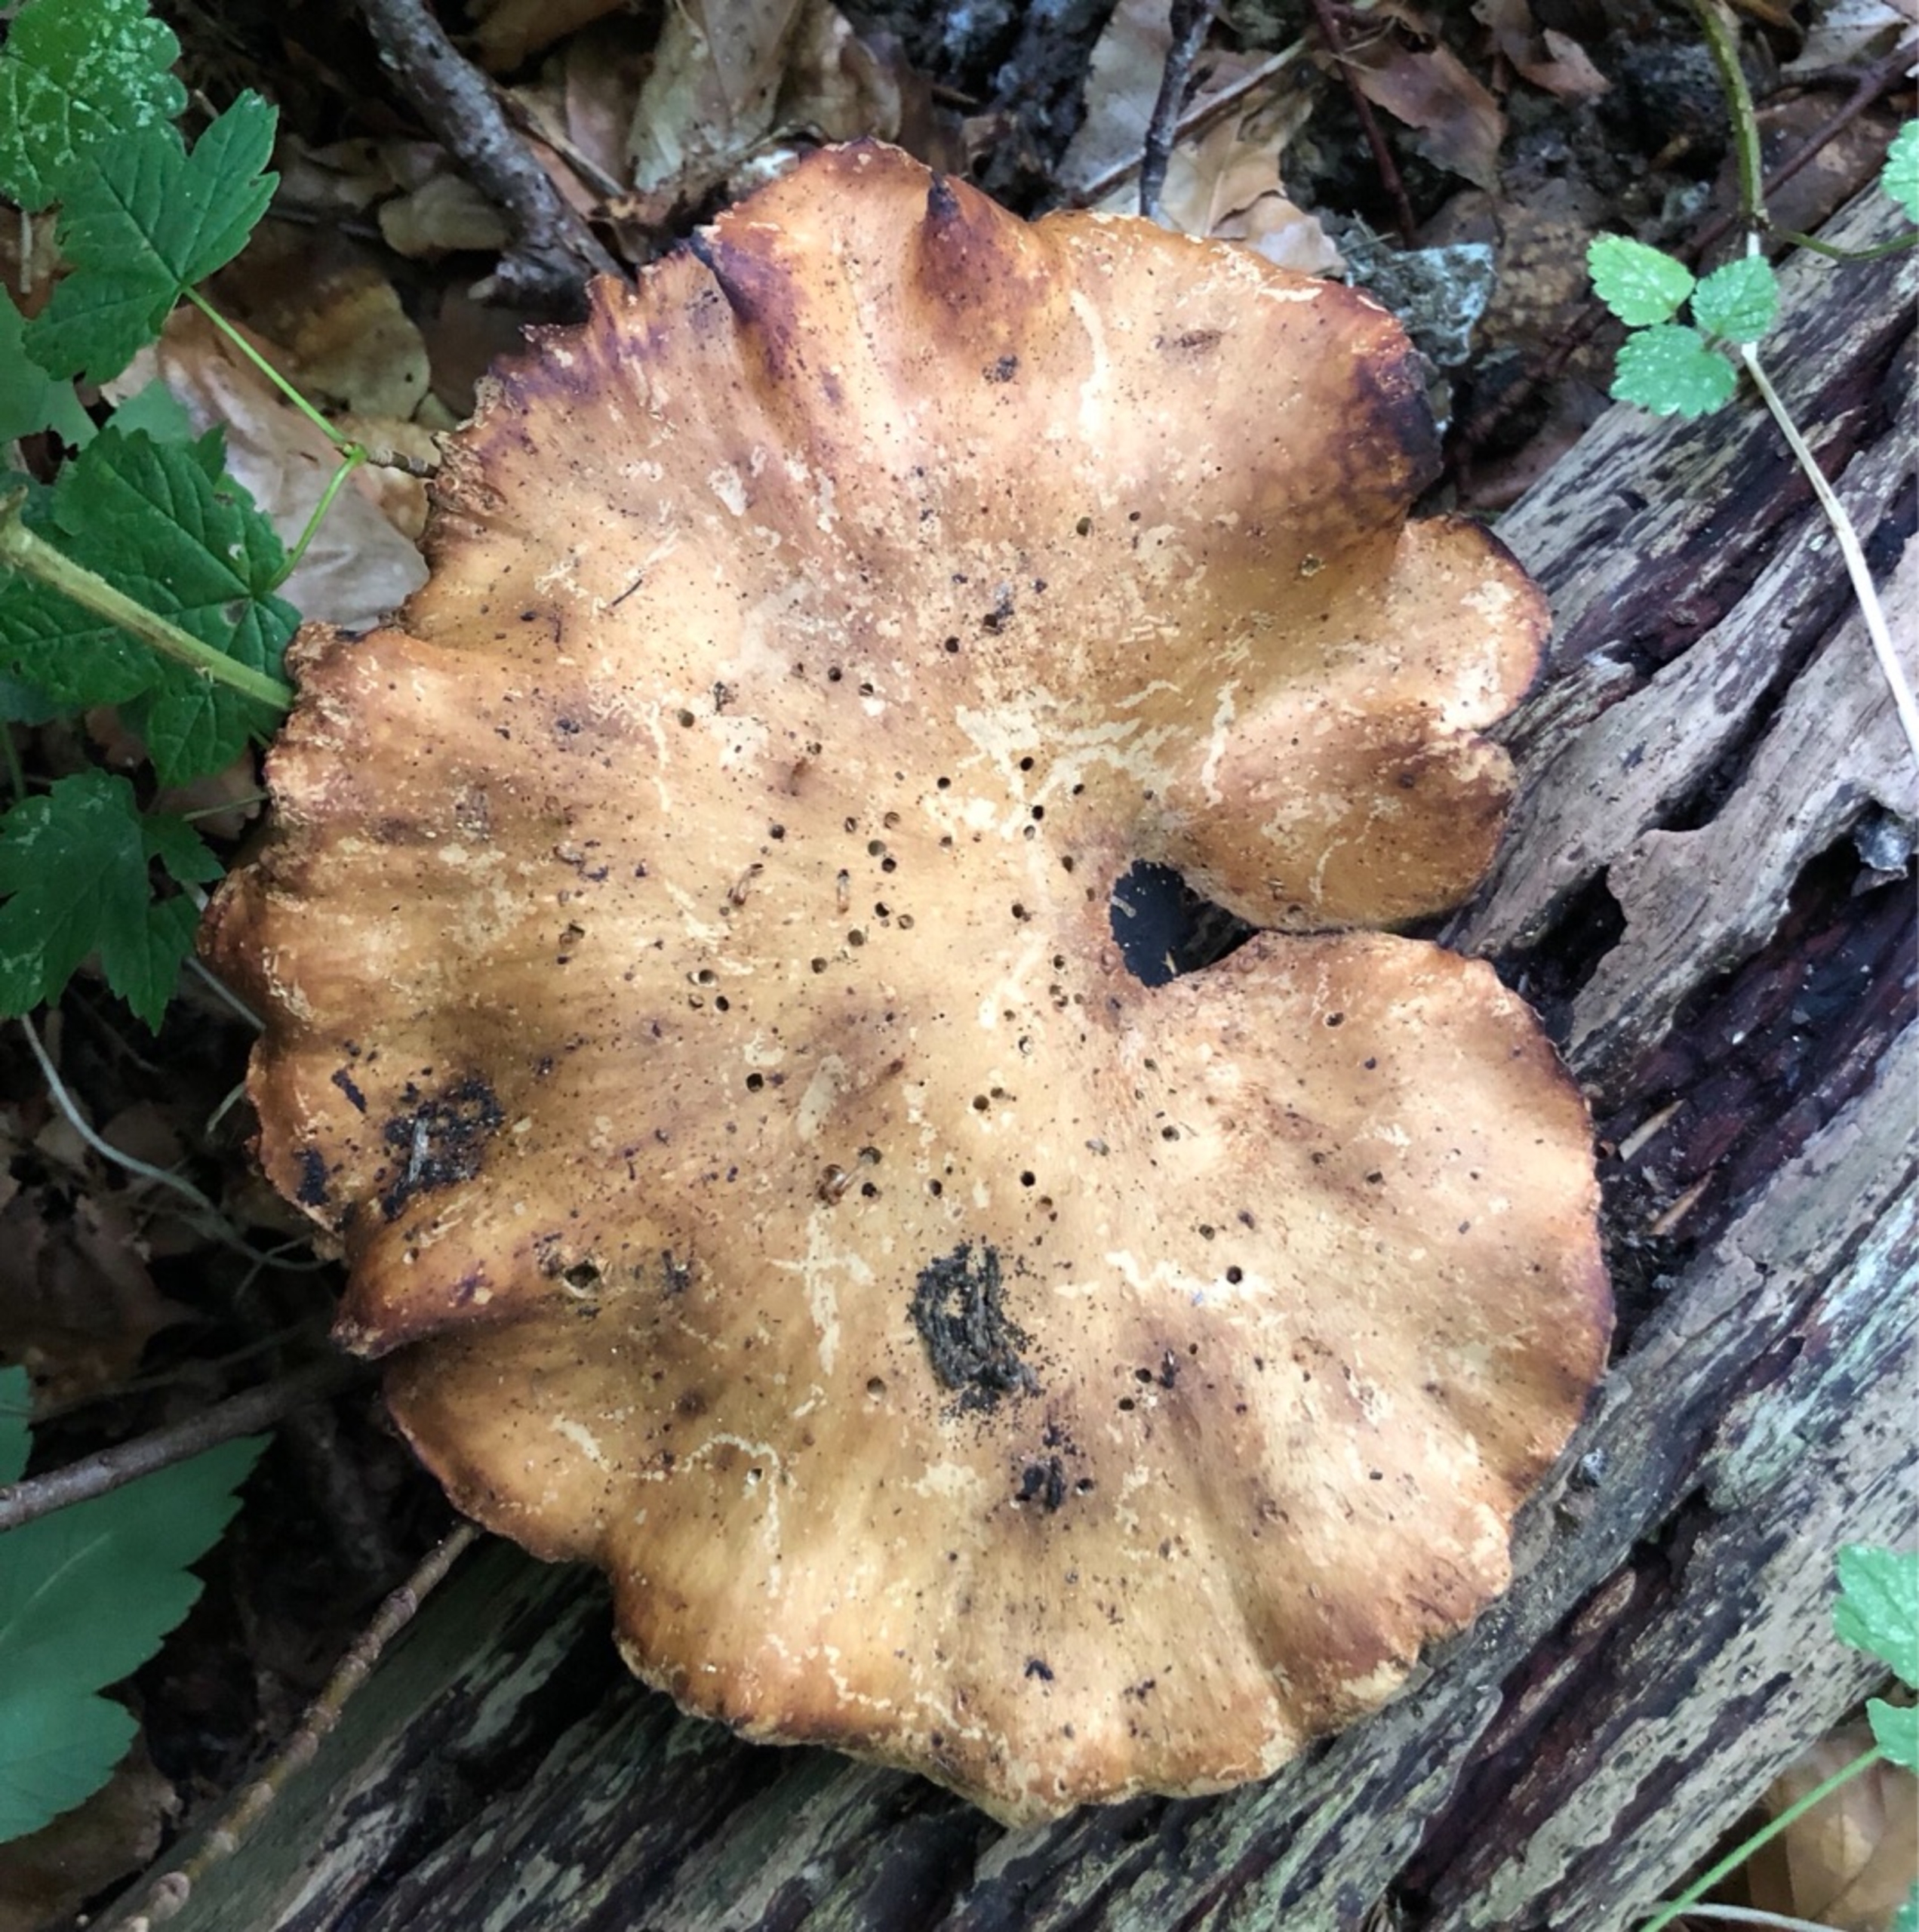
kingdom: Fungi
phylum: Basidiomycota
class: Agaricomycetes
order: Polyporales
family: Polyporaceae
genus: Cerioporus
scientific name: Cerioporus leptocephalus
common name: Foranderlig stilkporesvamp
